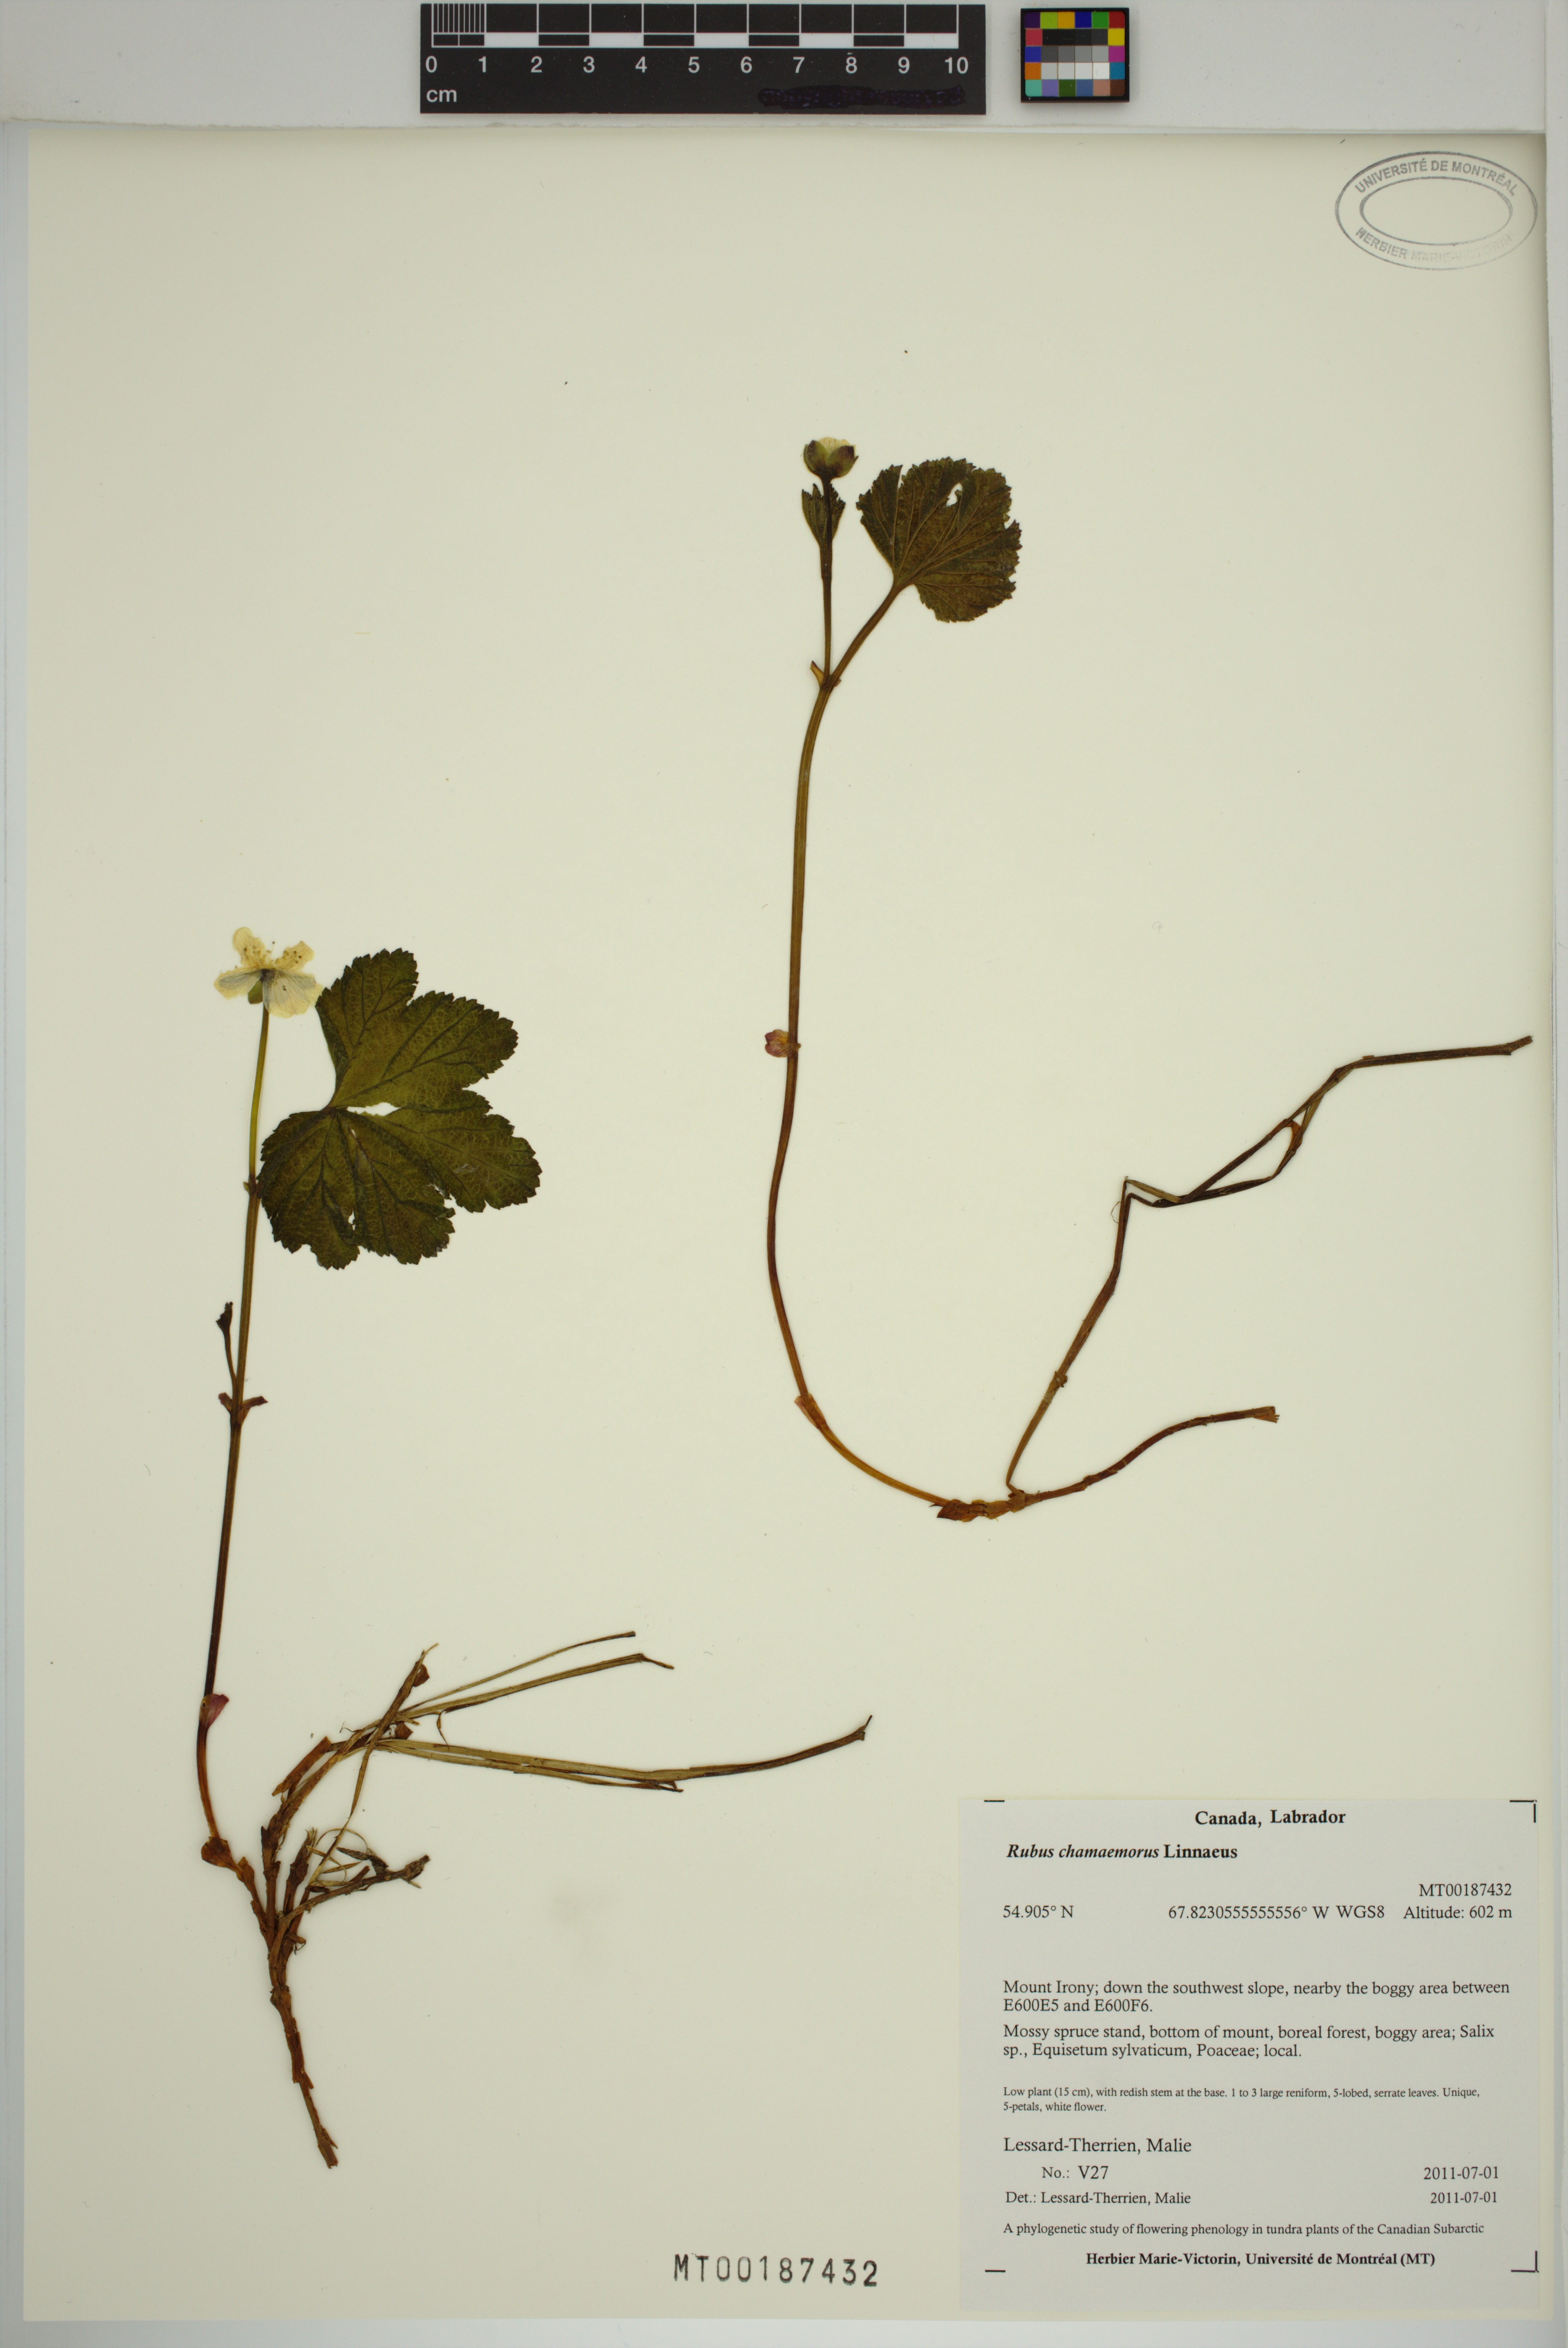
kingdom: Plantae
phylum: Tracheophyta
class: Magnoliopsida
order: Rosales
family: Rosaceae
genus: Rubus
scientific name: Rubus chamaemorus
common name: Cloudberry
